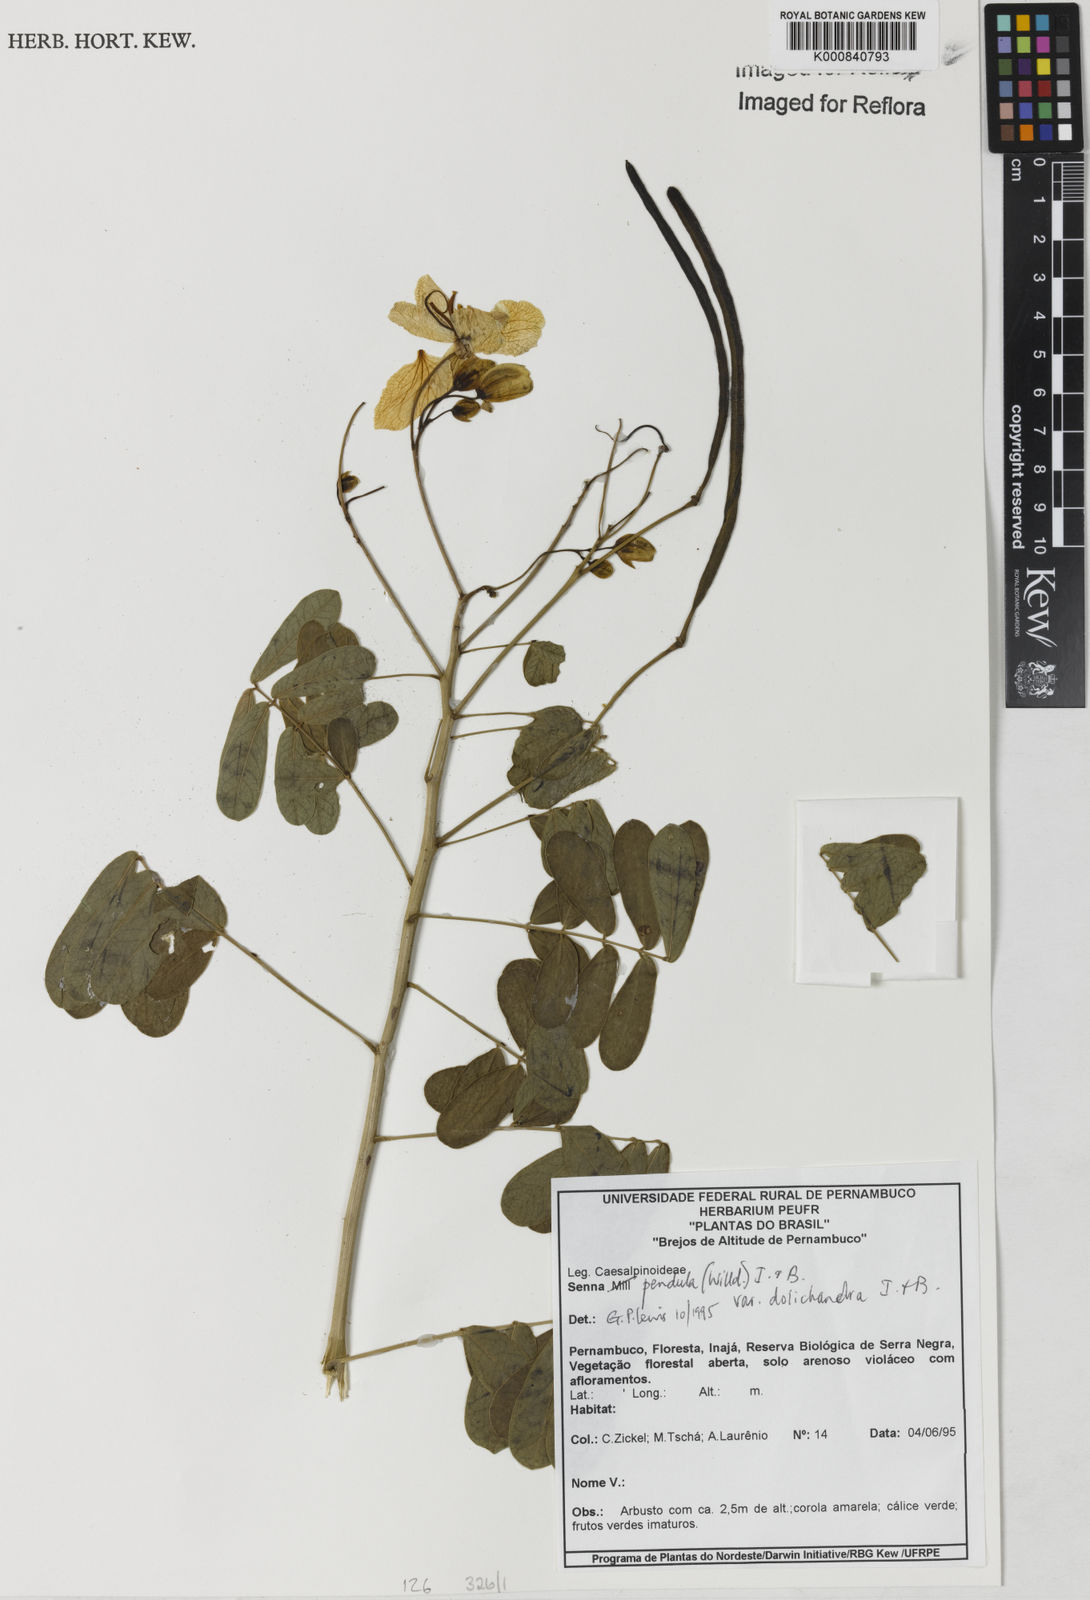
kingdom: Plantae
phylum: Tracheophyta
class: Magnoliopsida
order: Fabales
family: Fabaceae
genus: Senna
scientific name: Senna pendula
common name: Easter cassia
